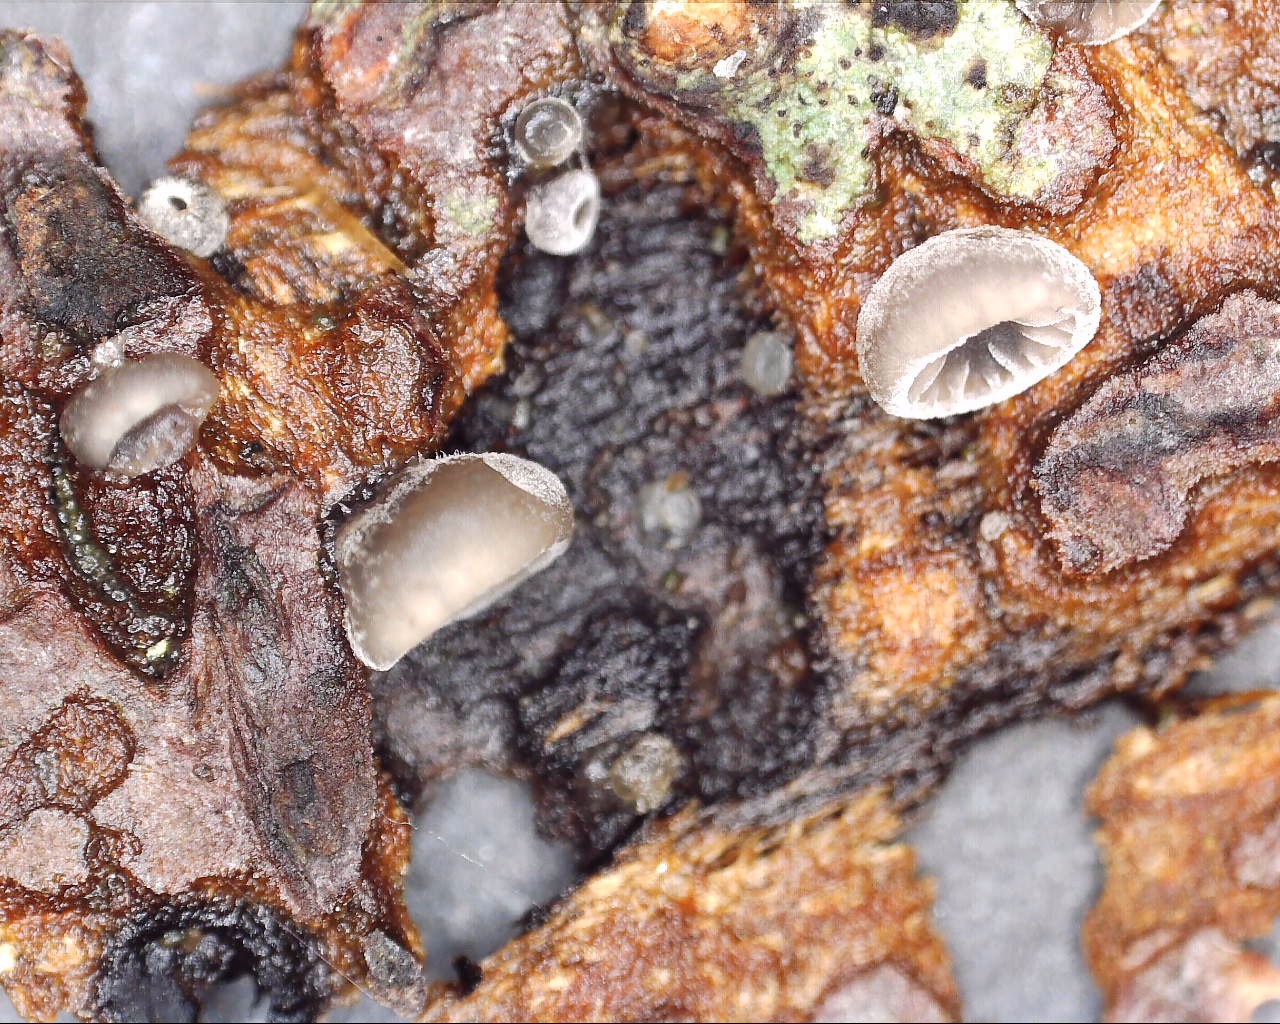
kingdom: Fungi
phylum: Basidiomycota
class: Agaricomycetes
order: Agaricales
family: Pleurotaceae
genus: Resupinatus
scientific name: Resupinatus applicatus
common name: lysfiltet barkhat
